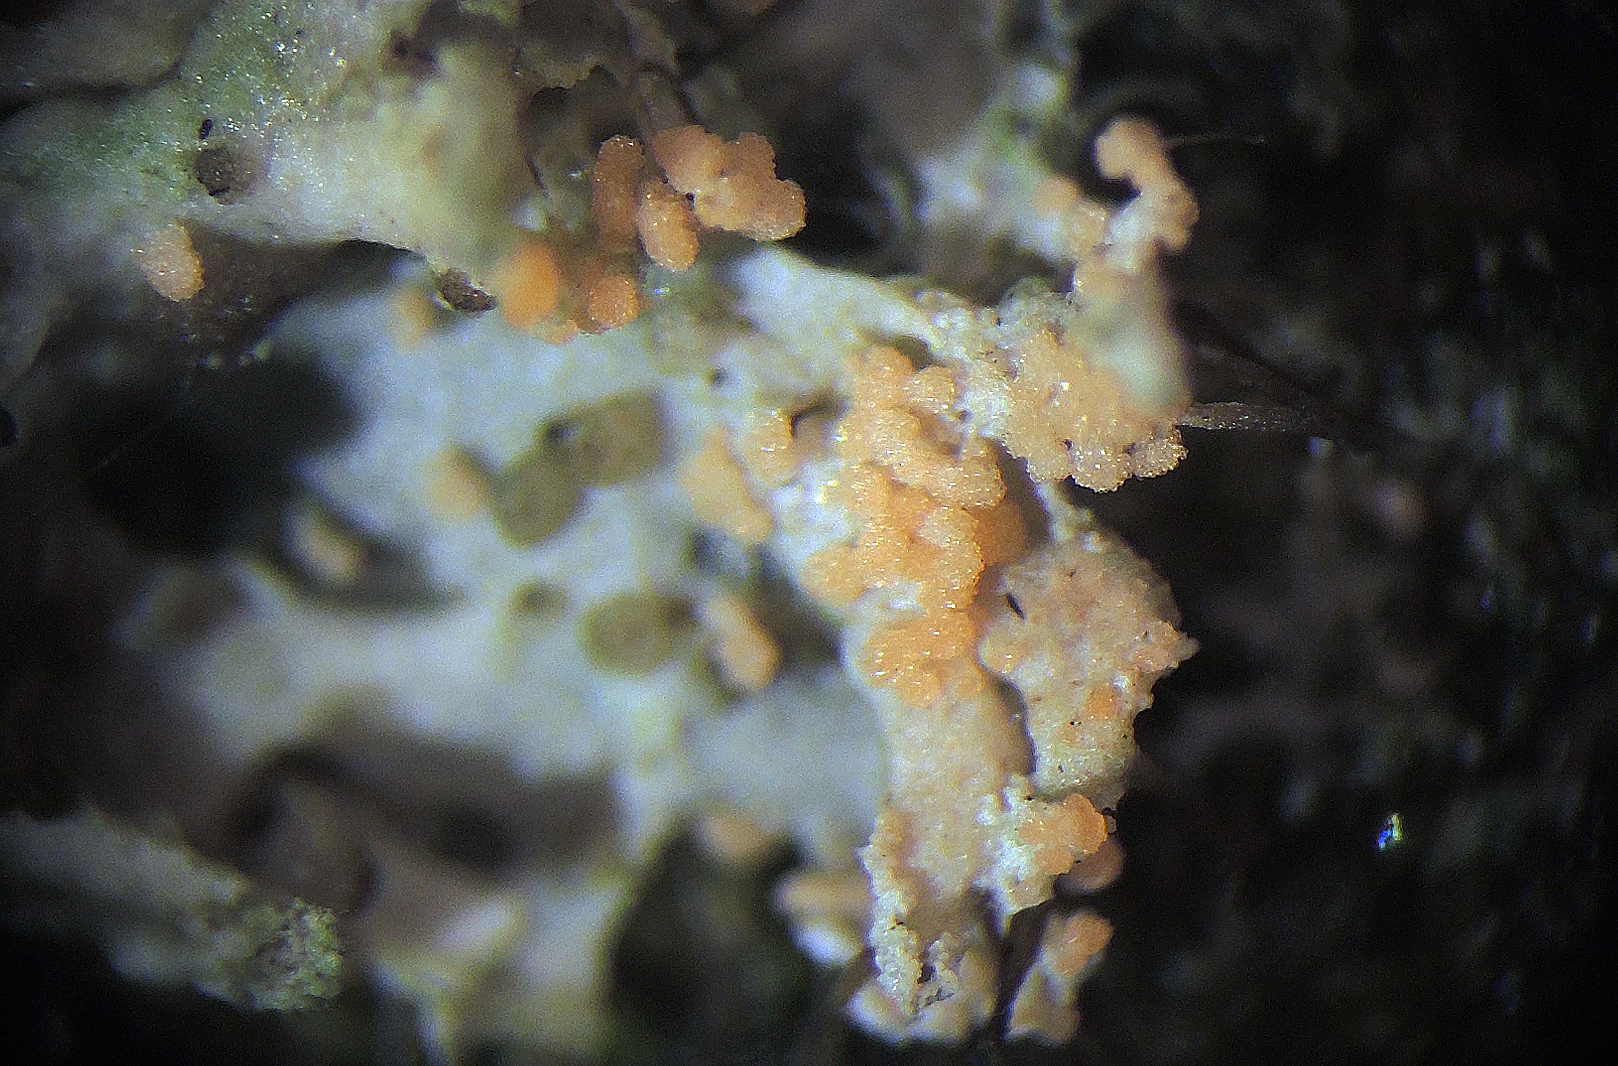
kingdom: Fungi
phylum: Basidiomycota
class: Agaricomycetes
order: Corticiales
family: Corticiaceae
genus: Erythricium
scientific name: Erythricium aurantiacum
